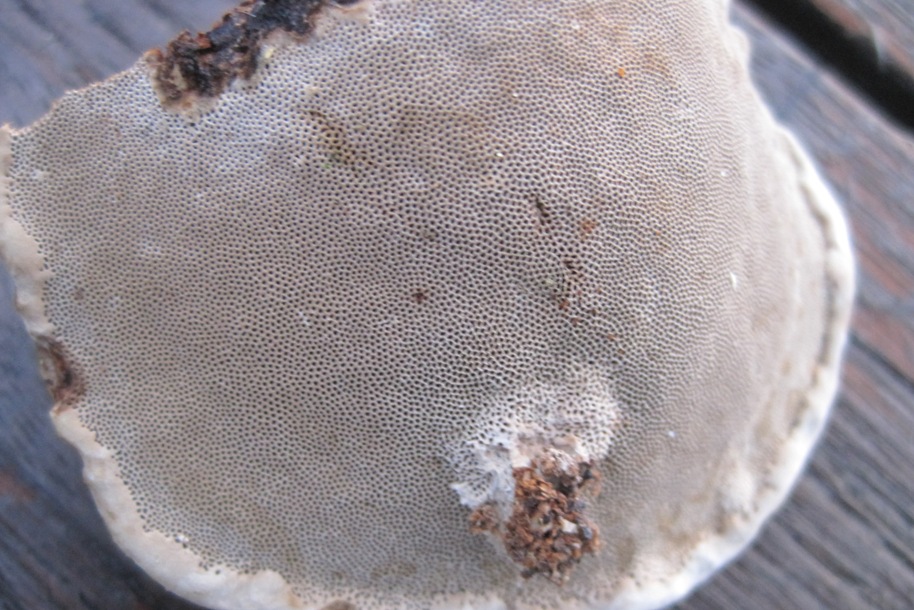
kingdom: Fungi
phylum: Basidiomycota
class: Agaricomycetes
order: Polyporales
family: Polyporaceae
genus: Fomes
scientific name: Fomes fomentarius
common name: tøndersvamp
